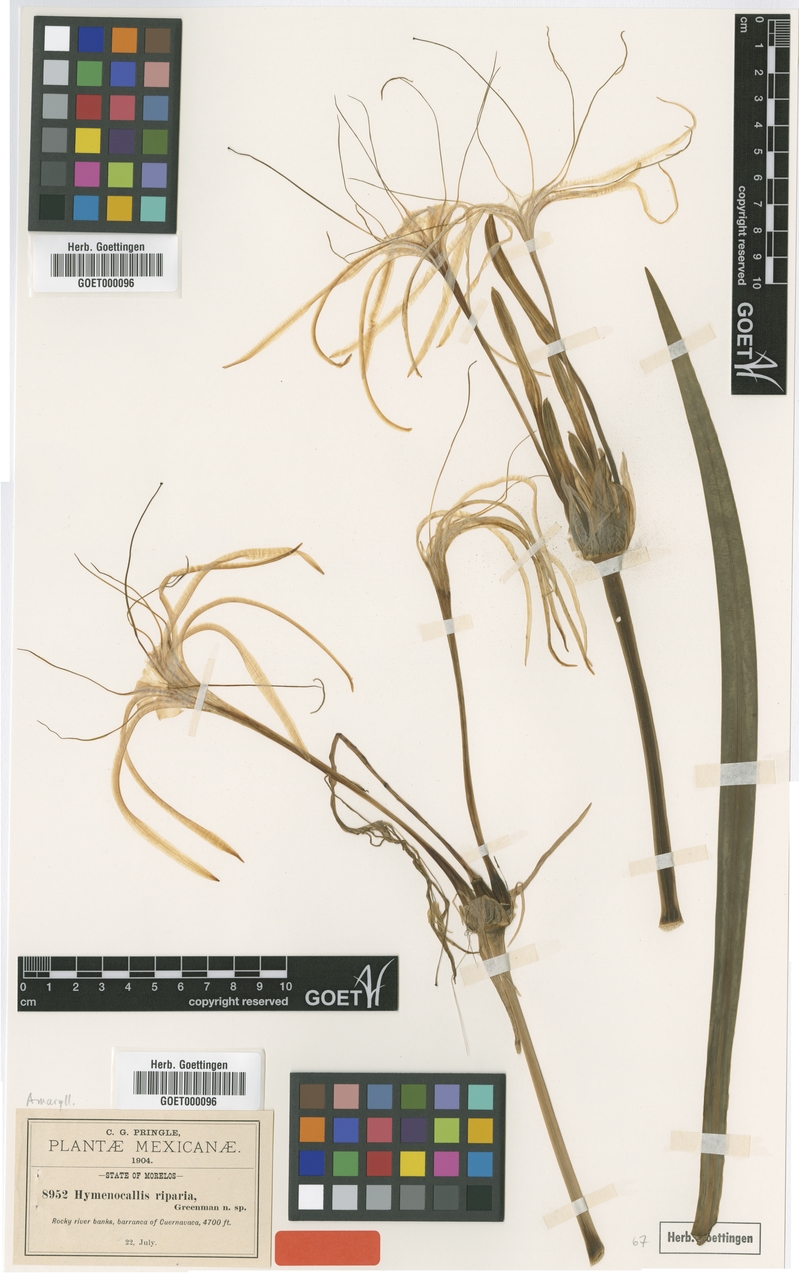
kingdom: Plantae
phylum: Tracheophyta
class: Liliopsida
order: Asparagales
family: Amaryllidaceae
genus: Hymenocallis
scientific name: Hymenocallis acutifolia
